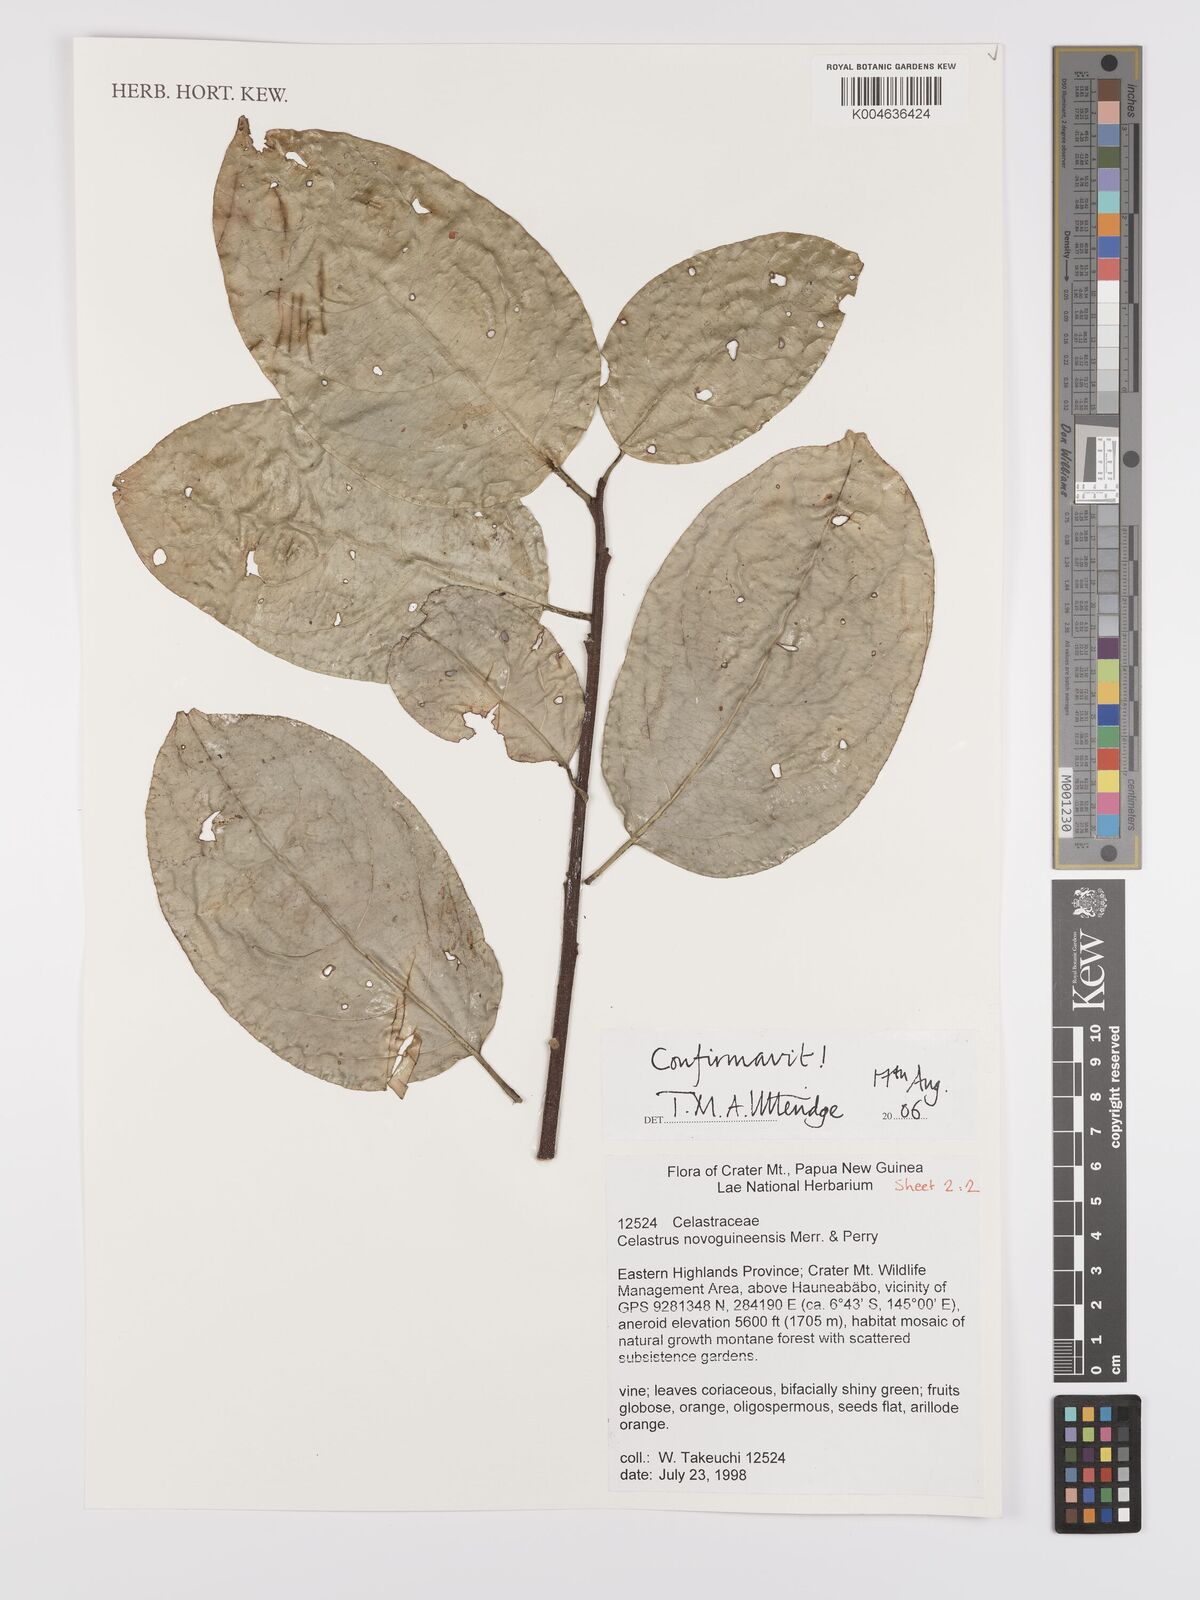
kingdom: Plantae
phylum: Tracheophyta
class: Magnoliopsida
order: Celastrales
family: Celastraceae
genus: Celastrus
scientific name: Celastrus novoguineensis
